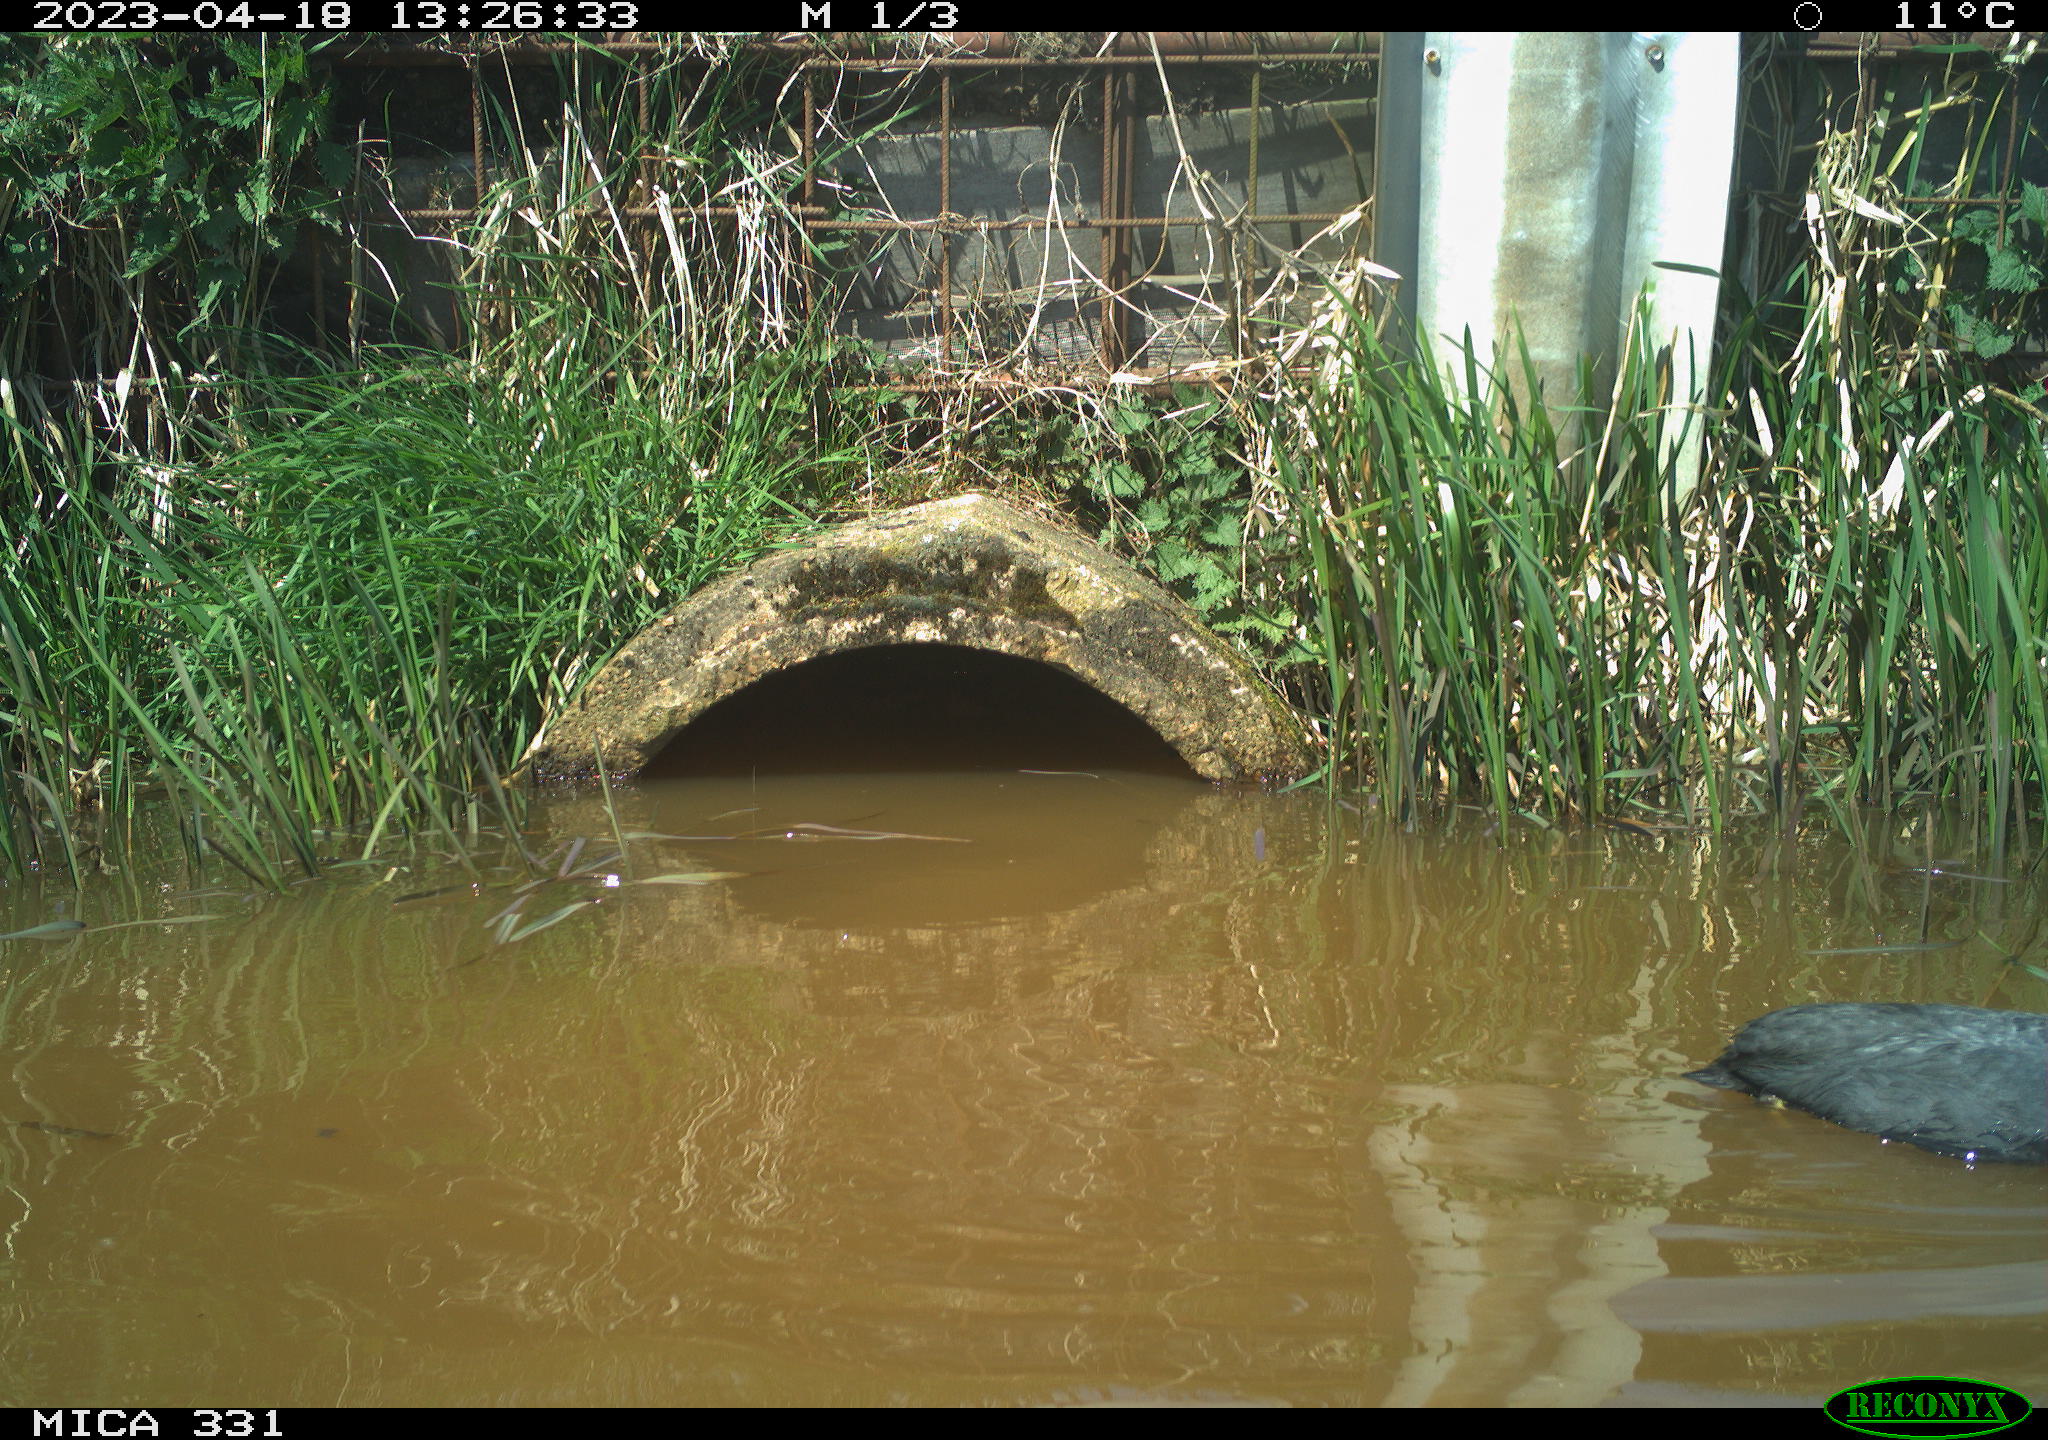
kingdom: Animalia
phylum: Chordata
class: Aves
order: Gruiformes
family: Rallidae
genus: Fulica
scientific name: Fulica atra
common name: Eurasian coot
